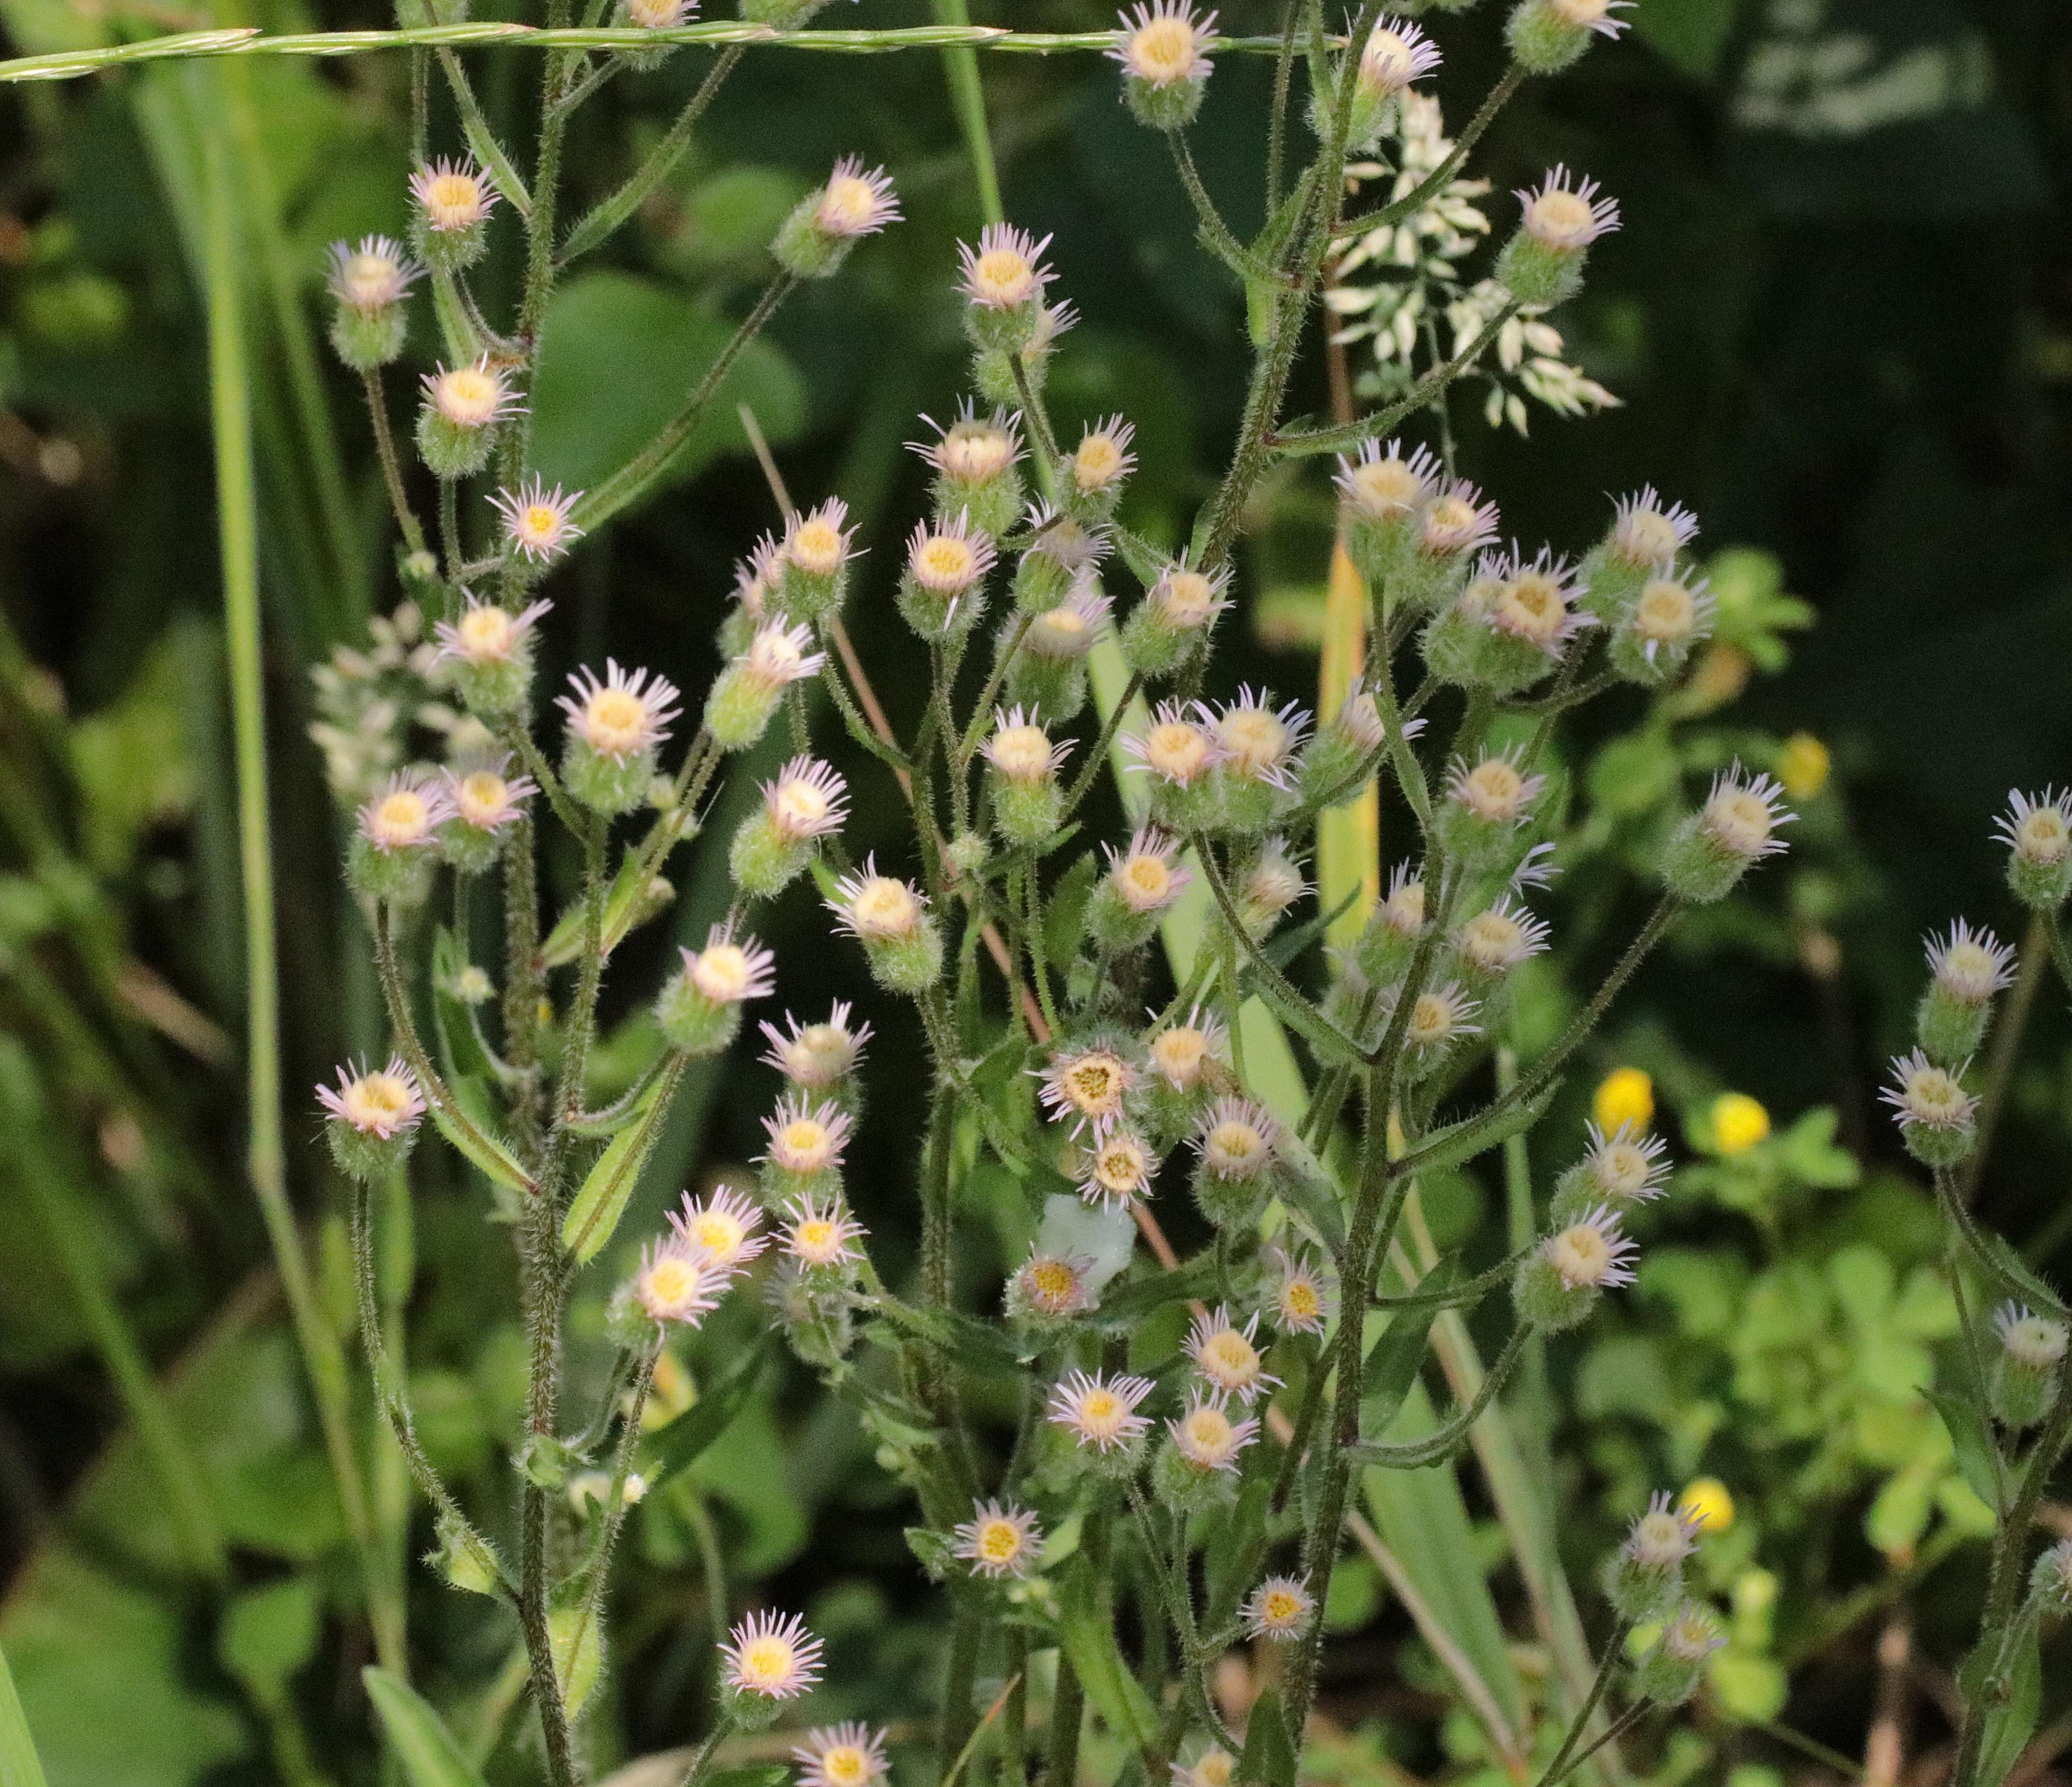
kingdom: Plantae
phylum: Tracheophyta
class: Magnoliopsida
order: Asterales
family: Asteraceae
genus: Erigeron
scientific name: Erigeron acris
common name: Bitter bakkestjerne
